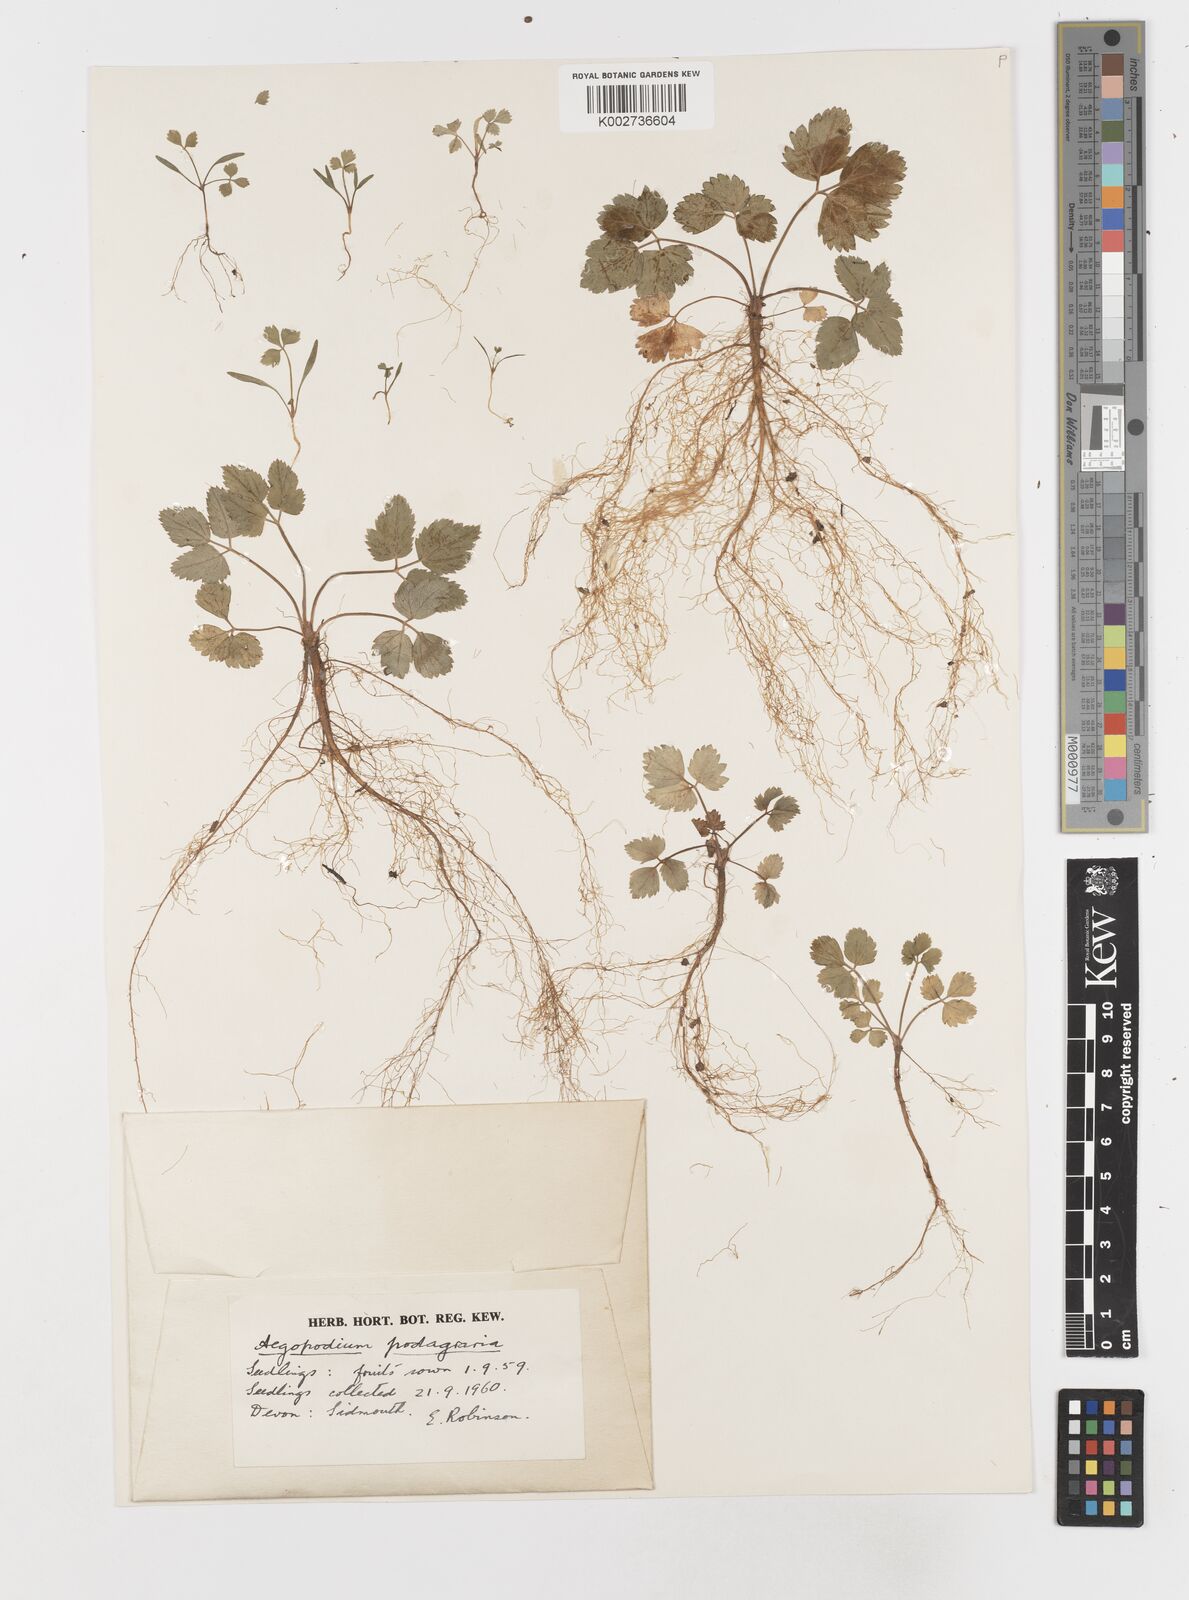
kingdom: Plantae
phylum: Tracheophyta
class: Magnoliopsida
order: Apiales
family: Apiaceae
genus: Aegopodium
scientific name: Aegopodium podagraria
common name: Ground-elder
